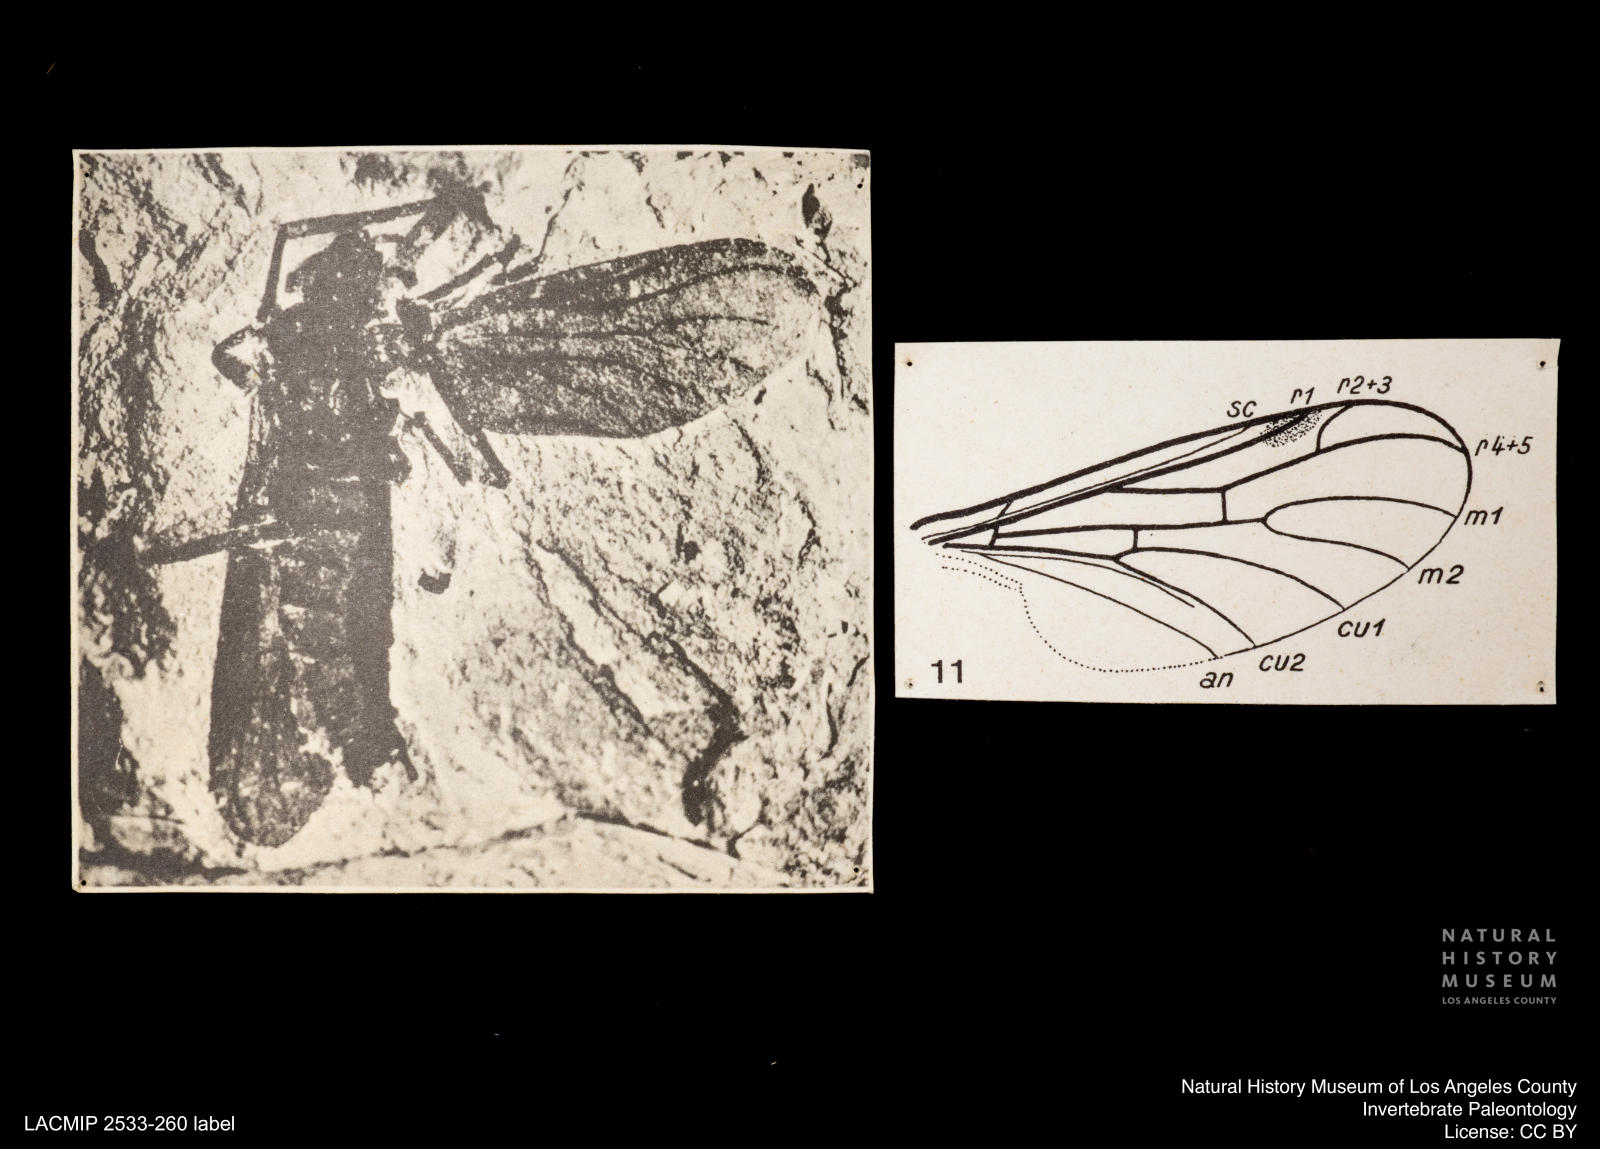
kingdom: Animalia
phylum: Arthropoda
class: Insecta
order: Diptera
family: Bibionidae
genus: Plecia
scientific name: Plecia
